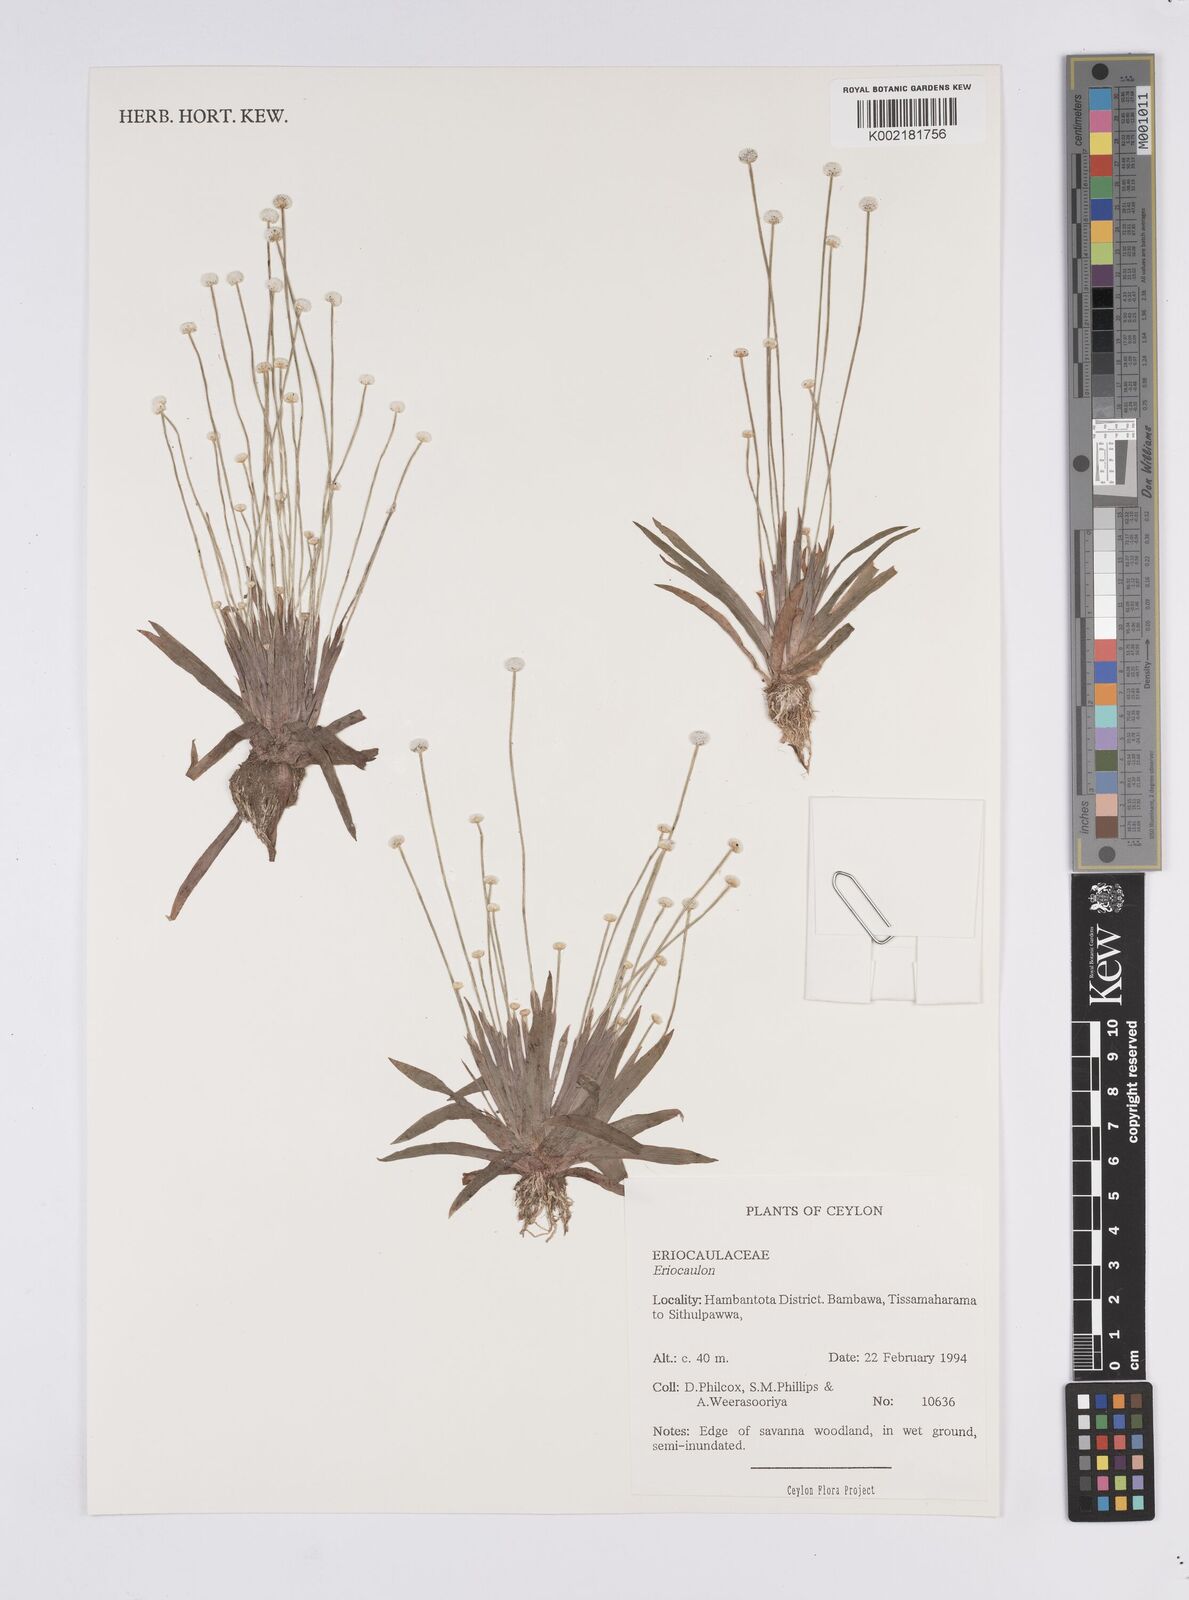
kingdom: Plantae
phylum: Tracheophyta
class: Liliopsida
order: Poales
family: Eriocaulaceae
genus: Eriocaulon
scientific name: Eriocaulon quinquangulare
